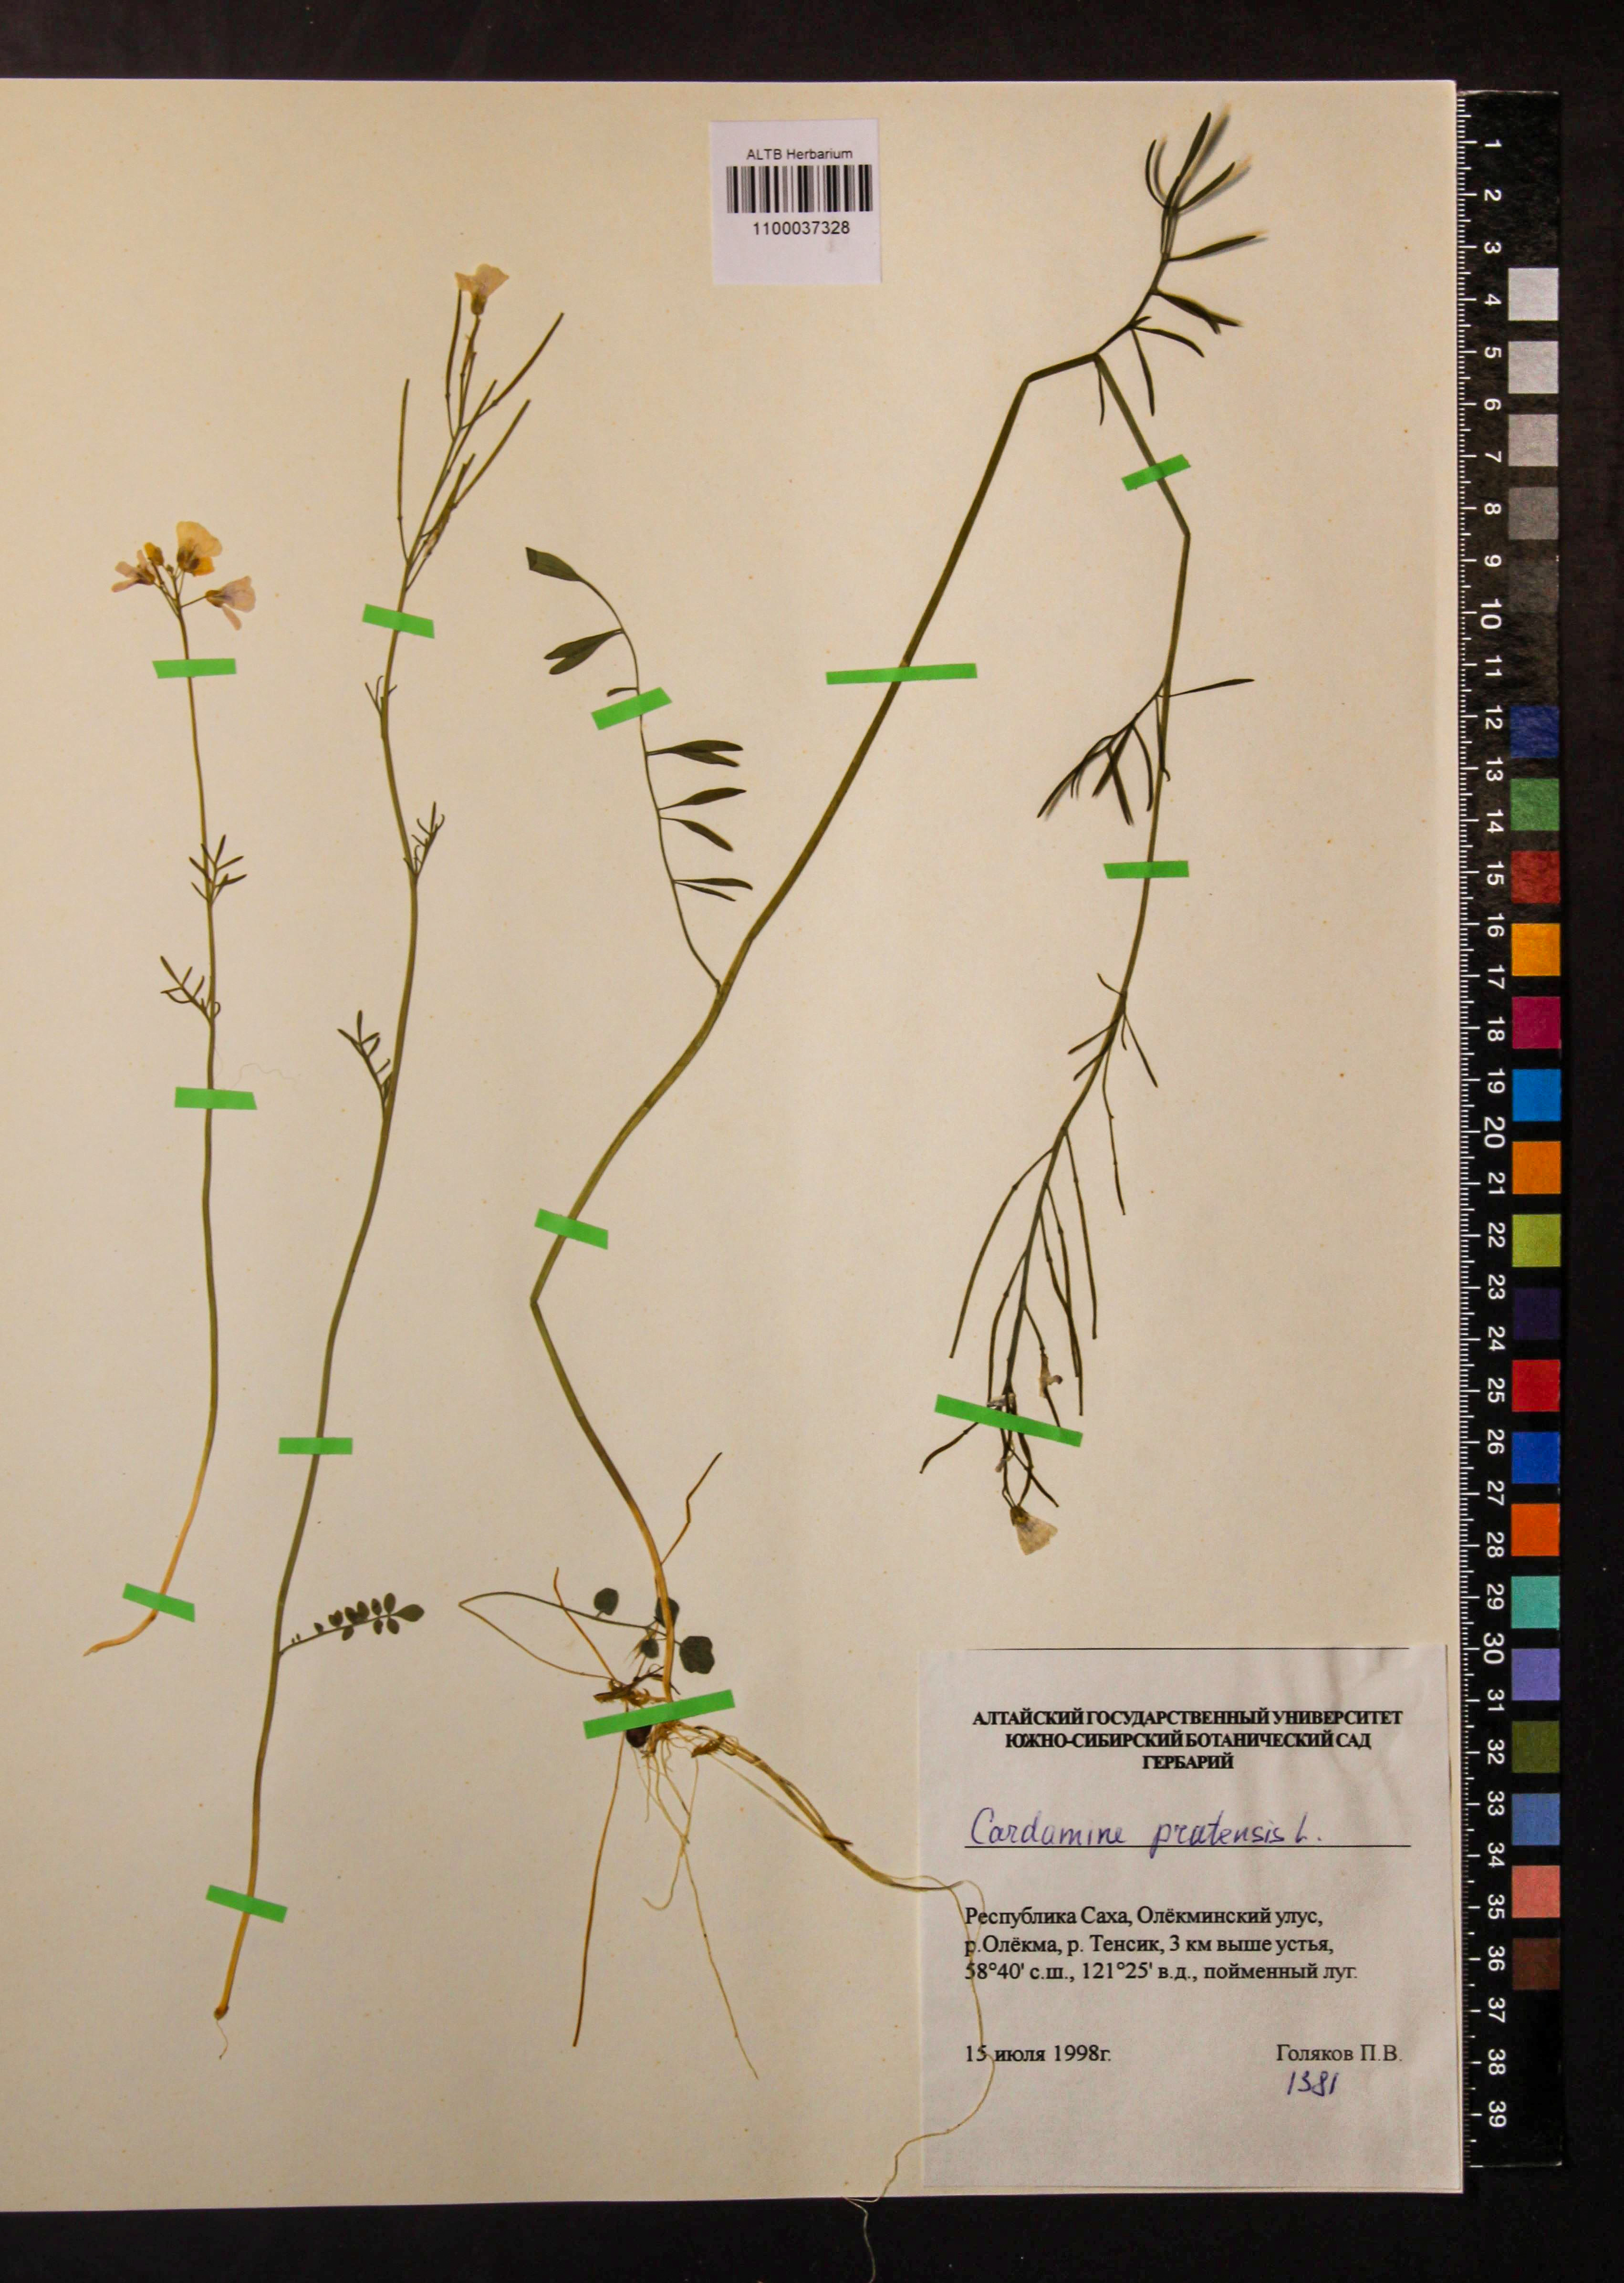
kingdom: Plantae
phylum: Tracheophyta
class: Magnoliopsida
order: Brassicales
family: Brassicaceae
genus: Cardamine
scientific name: Cardamine pratensis
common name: Cuckoo flower
